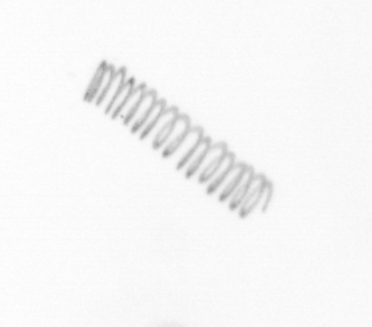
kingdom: Chromista
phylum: Ochrophyta
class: Bacillariophyceae
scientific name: Bacillariophyceae
